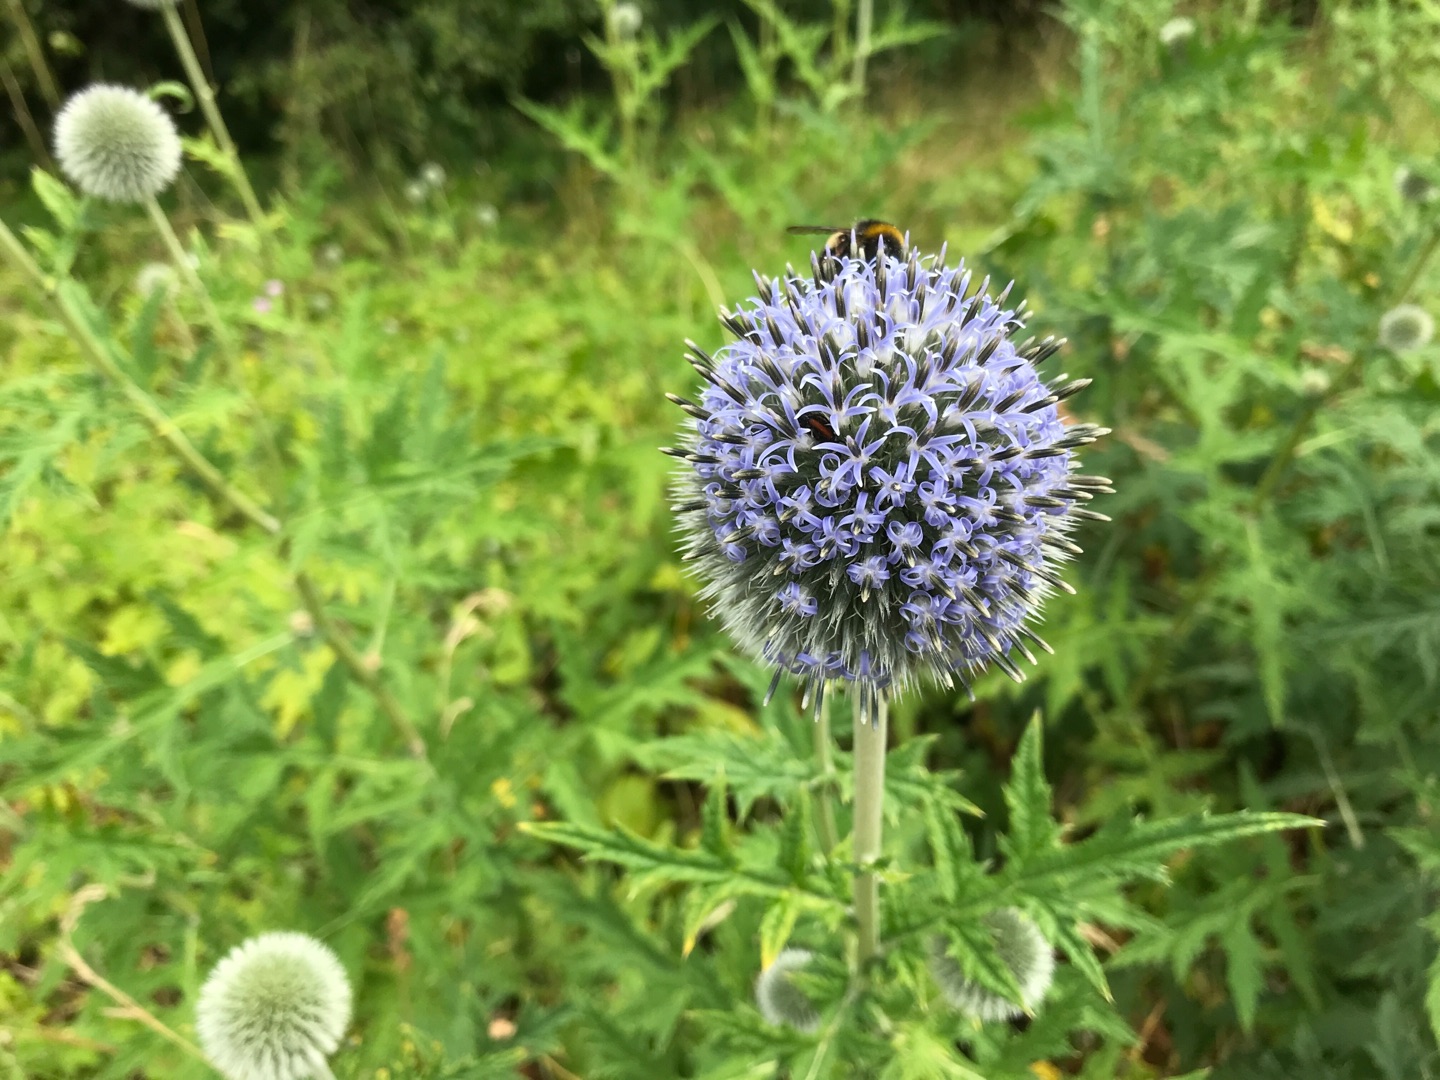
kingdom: Plantae
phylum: Tracheophyta
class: Magnoliopsida
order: Asterales
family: Asteraceae
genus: Echinops
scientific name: Echinops exaltatus
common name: Høj tidselkugle
